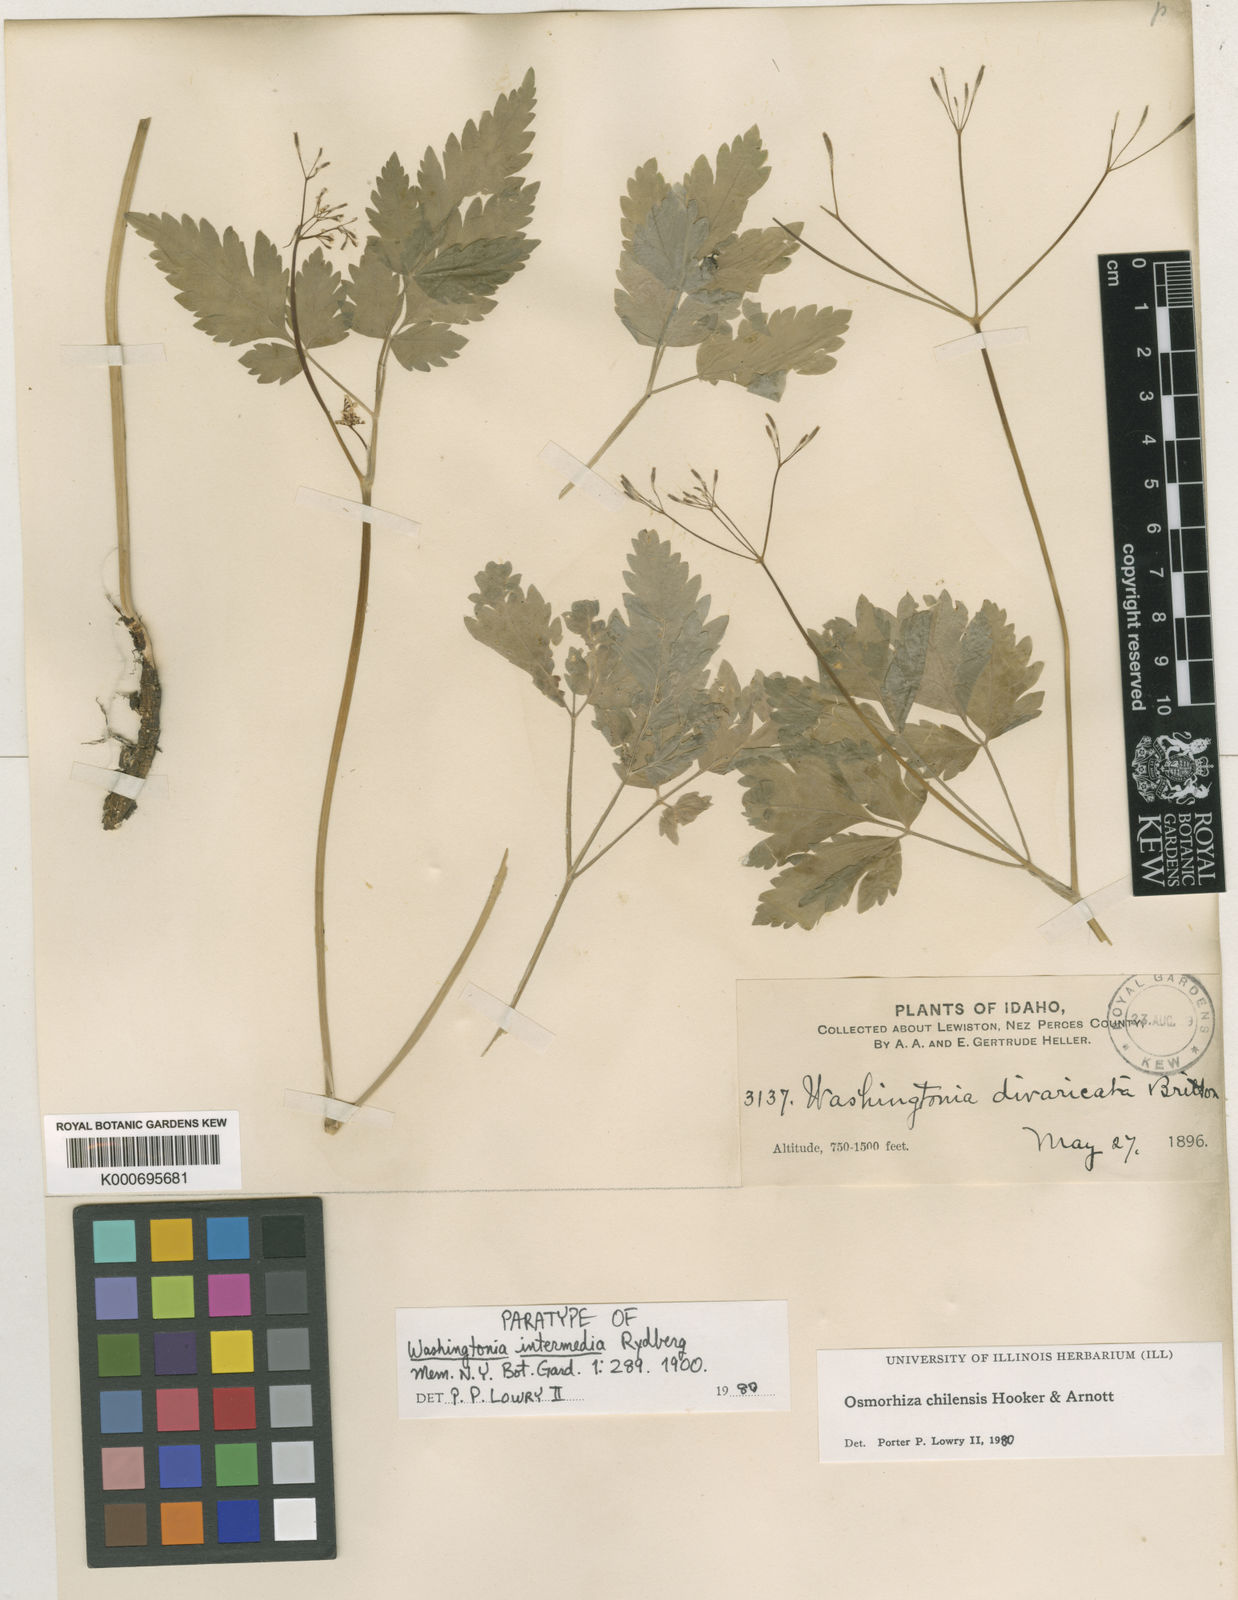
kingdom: Plantae
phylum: Tracheophyta
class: Magnoliopsida
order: Apiales
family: Apiaceae
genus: Osmorhiza
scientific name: Osmorhiza berteroi
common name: Mountain sweet cicely
